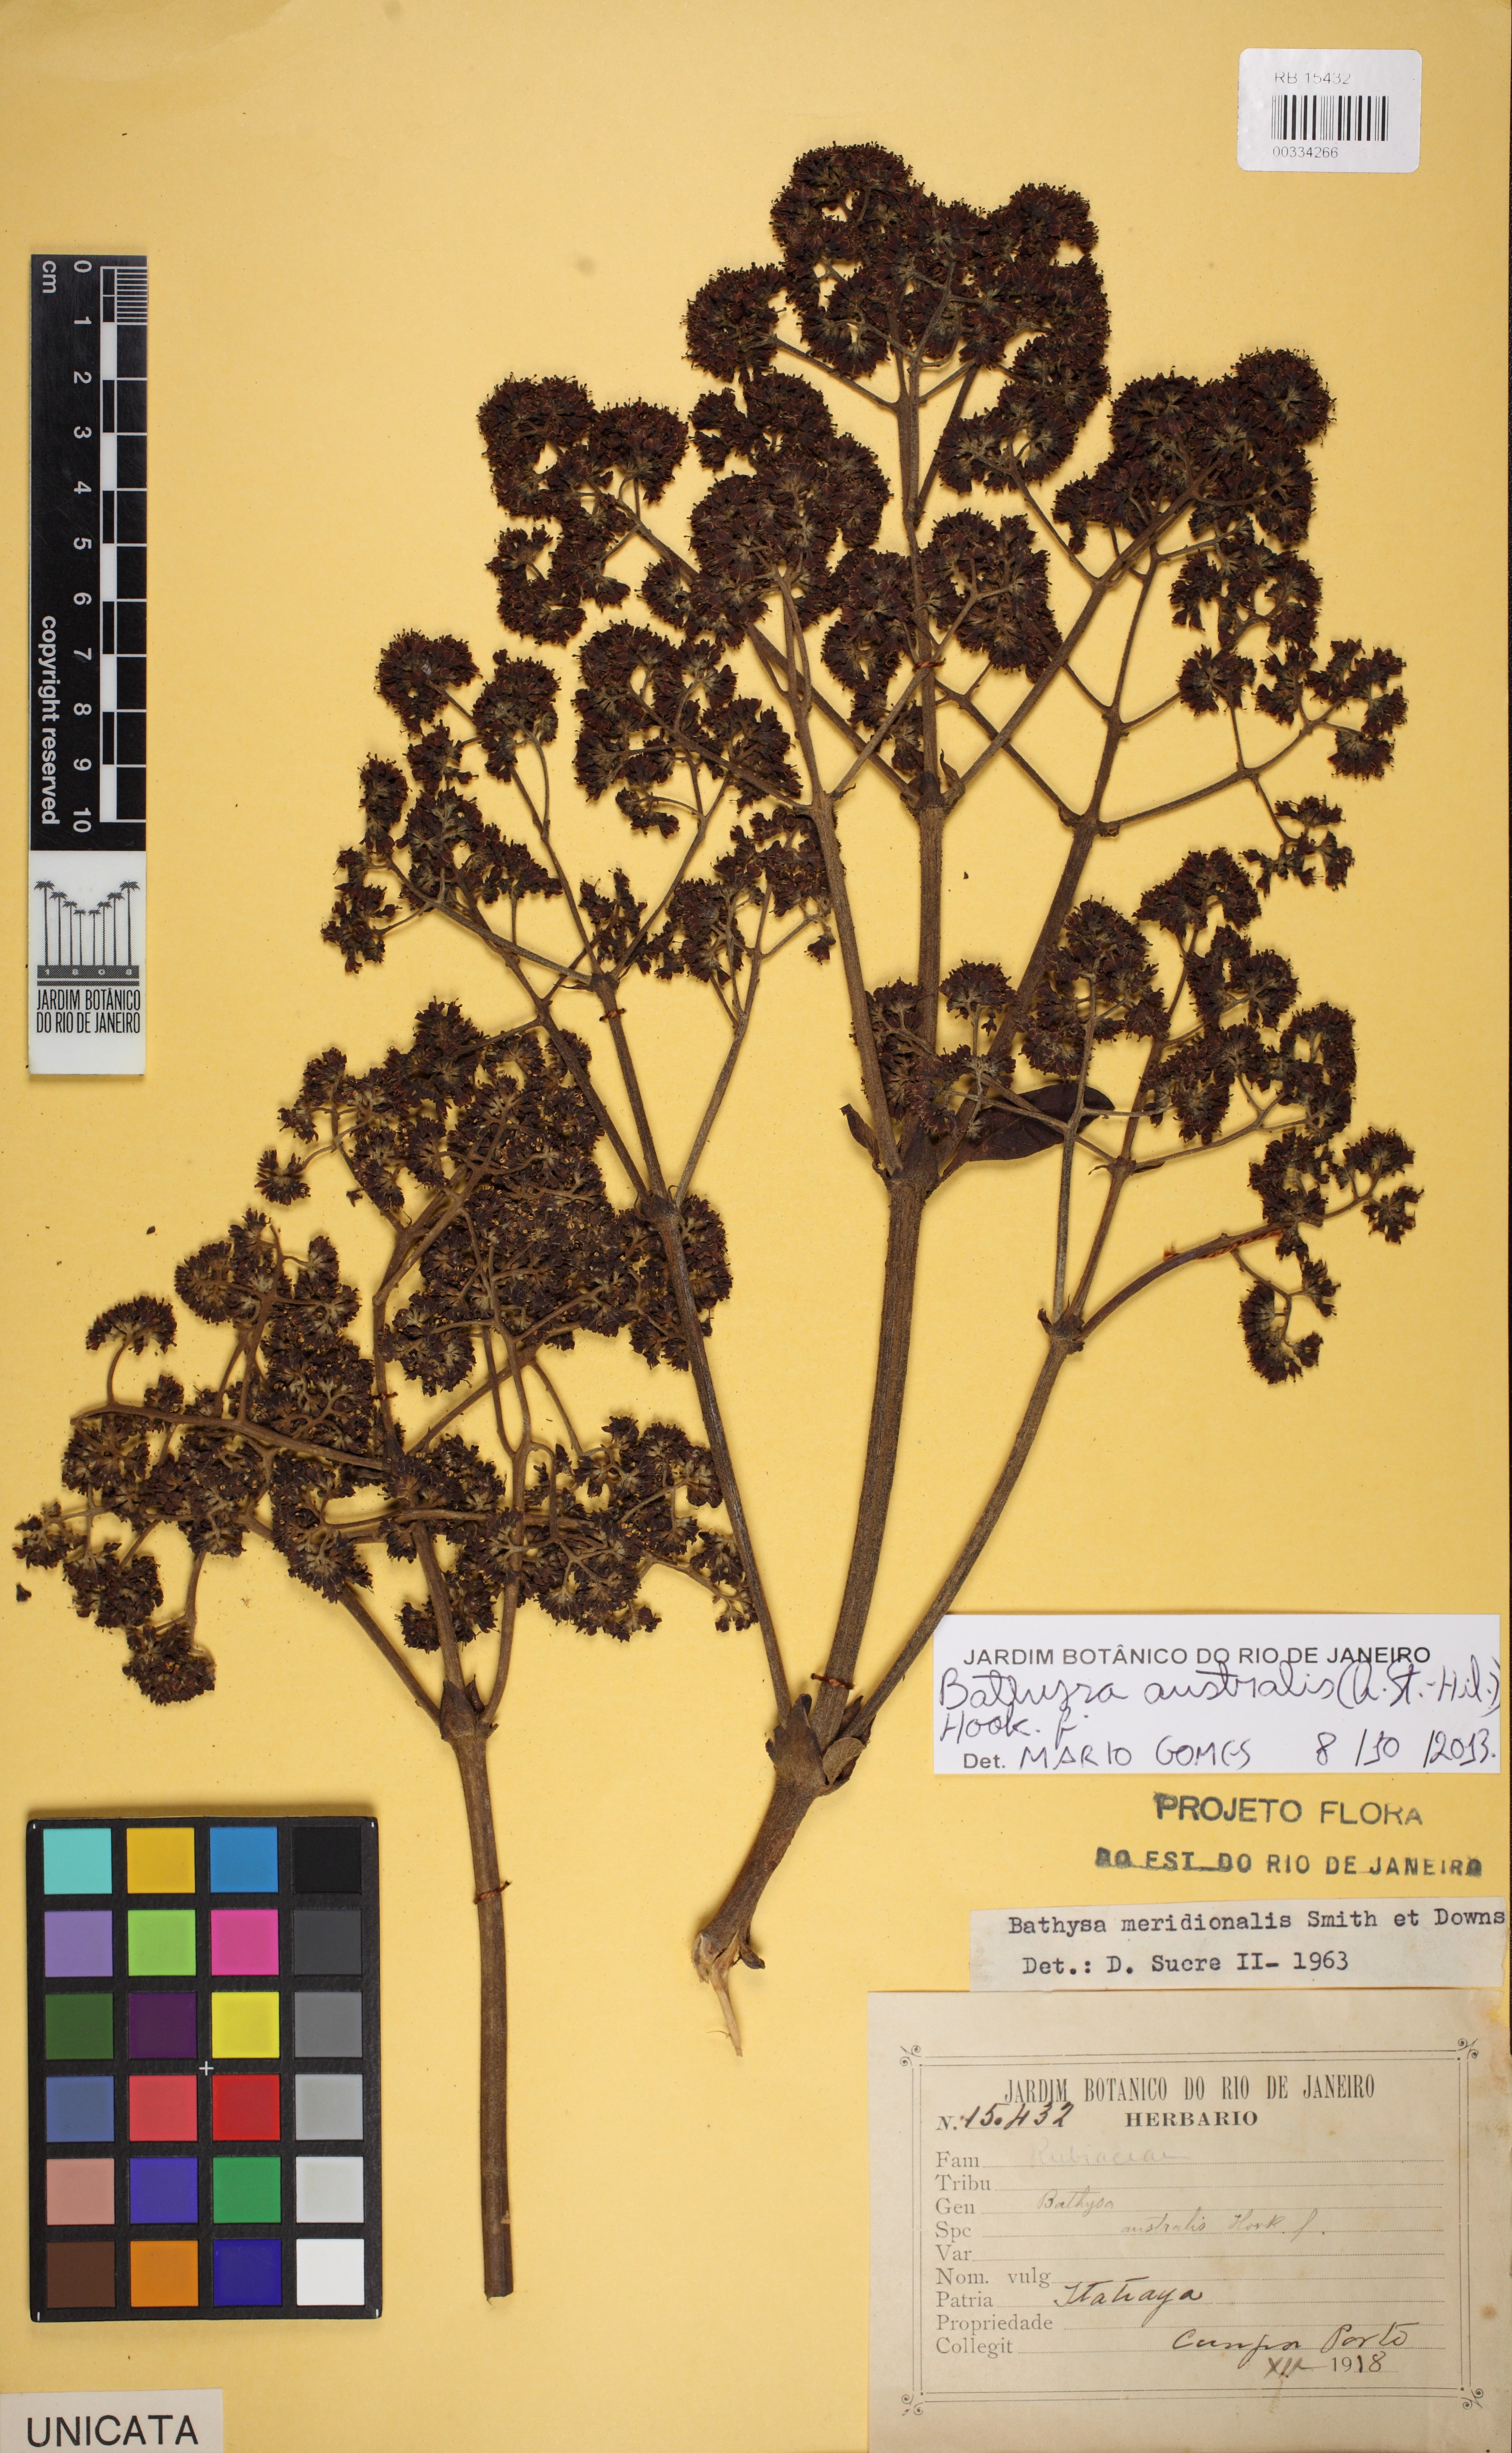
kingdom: Plantae
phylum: Tracheophyta
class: Magnoliopsida
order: Gentianales
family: Rubiaceae
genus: Bathysa
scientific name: Bathysa australis
